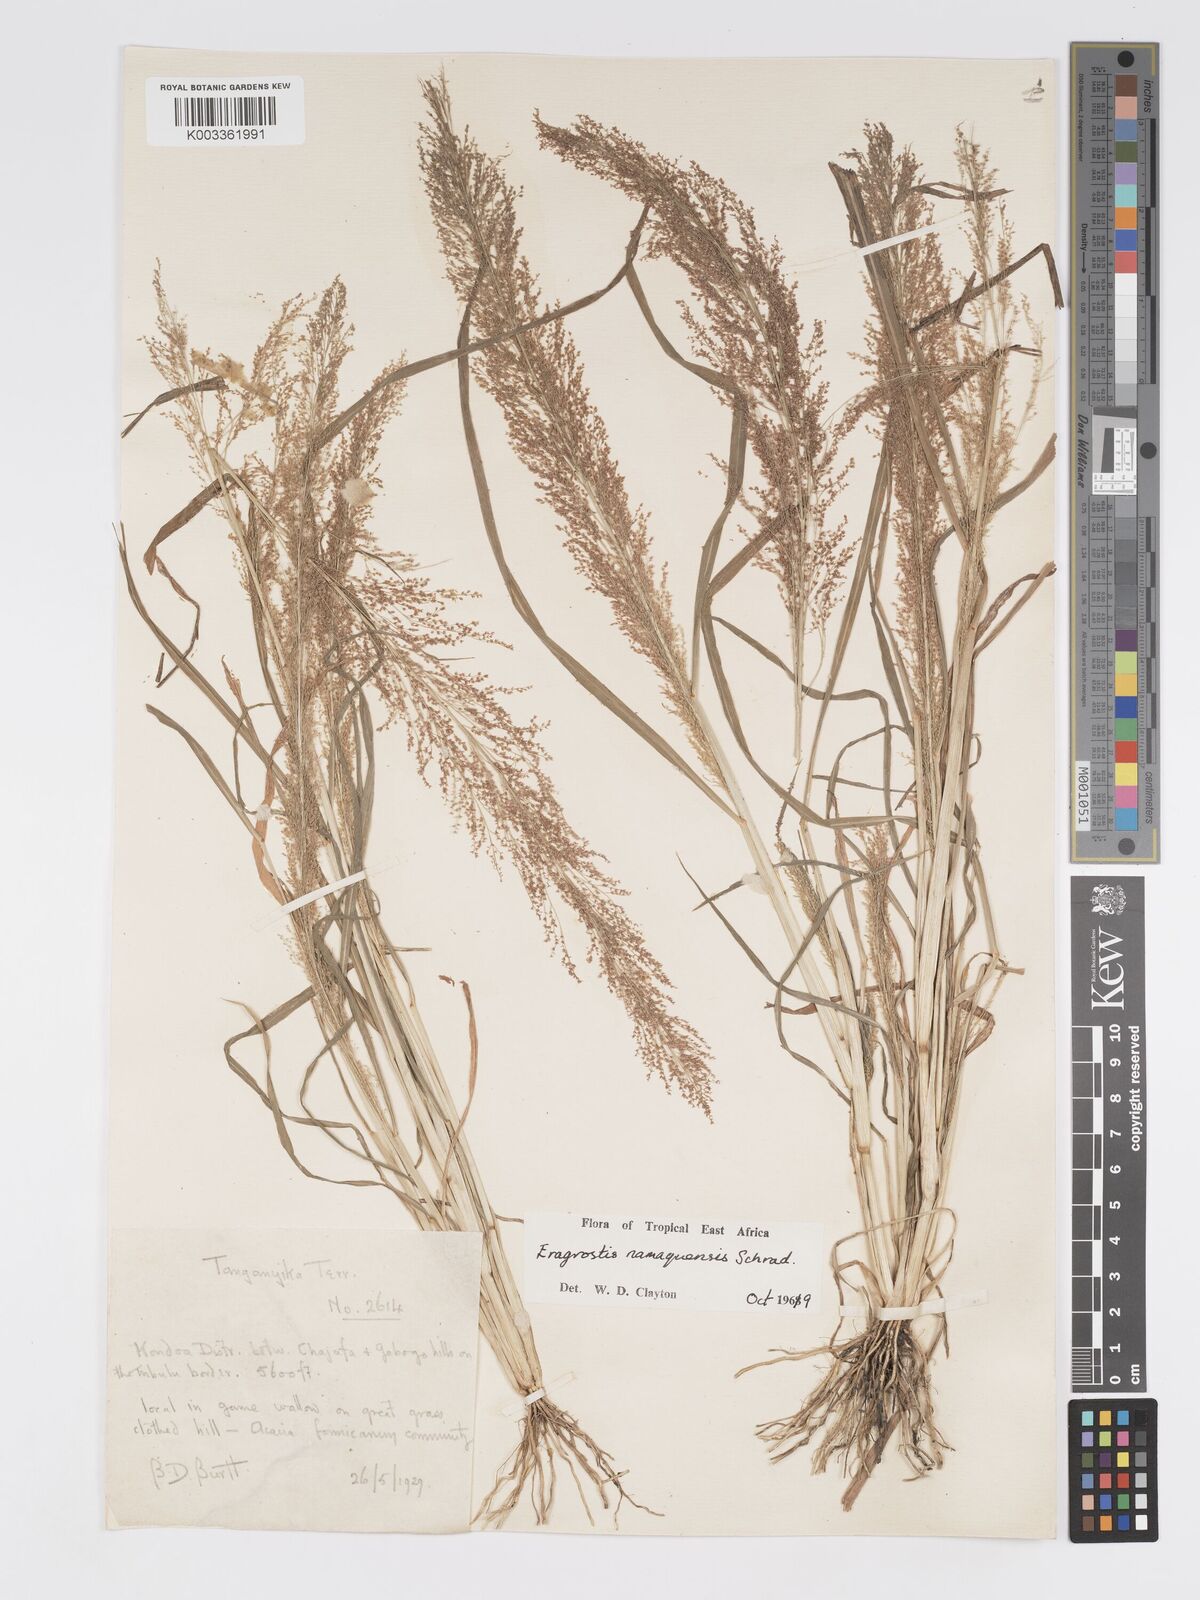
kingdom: Plantae
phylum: Tracheophyta
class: Liliopsida
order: Poales
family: Poaceae
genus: Eragrostis
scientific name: Eragrostis japonica
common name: Pond lovegrass
